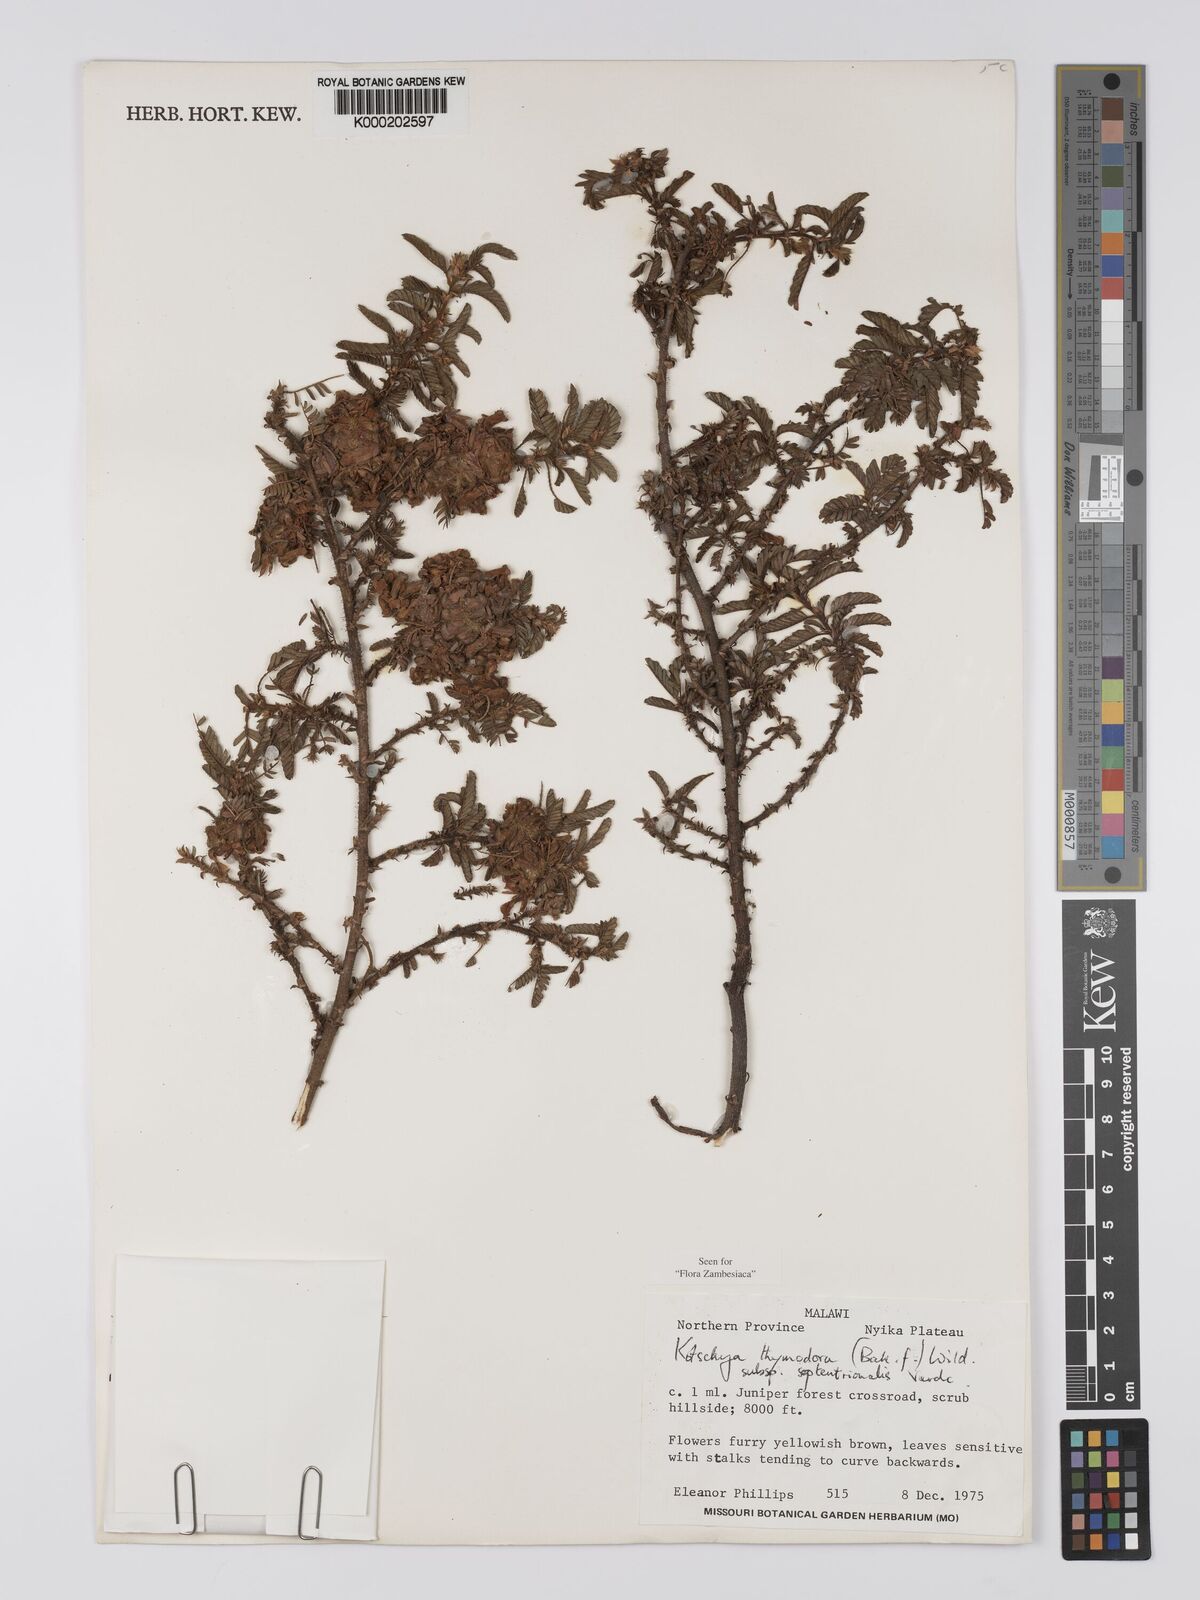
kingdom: Plantae
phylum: Tracheophyta
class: Magnoliopsida
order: Fabales
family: Fabaceae
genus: Kotschya
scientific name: Kotschya thymodora
